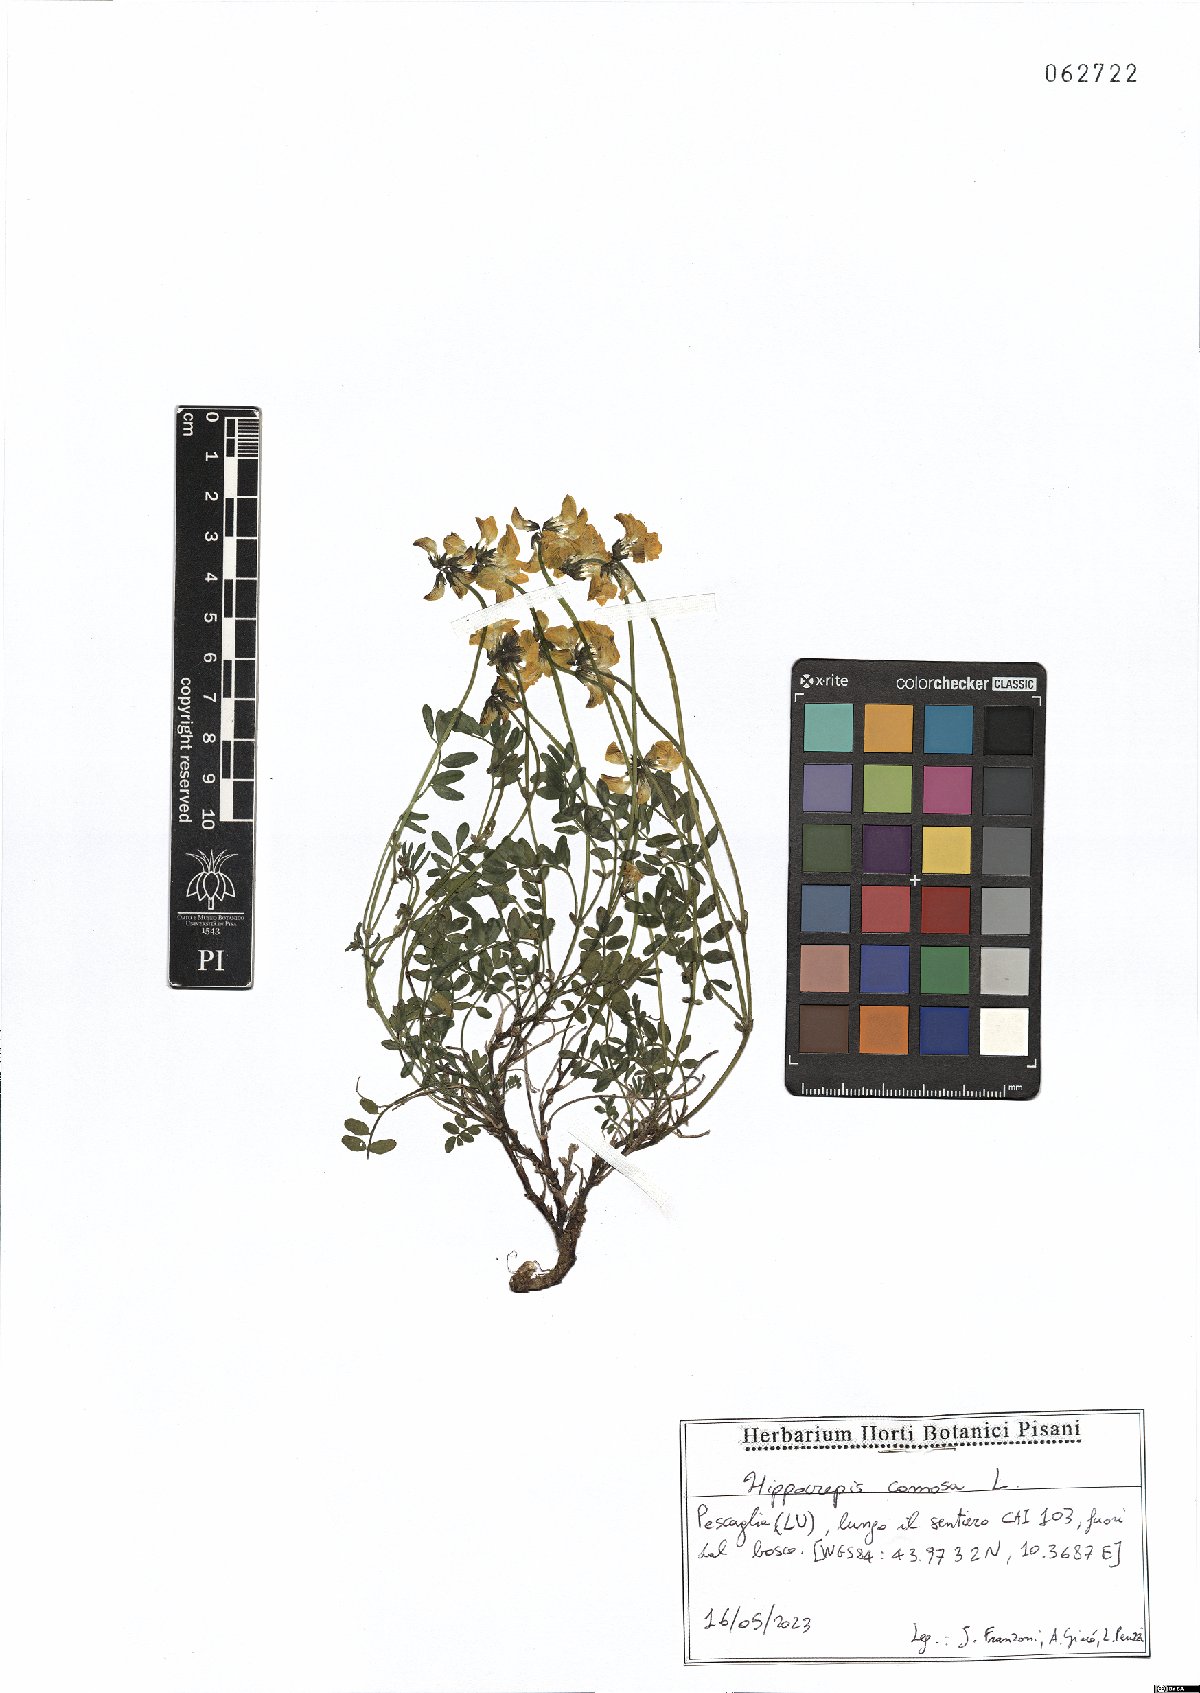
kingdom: Plantae
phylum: Tracheophyta
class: Magnoliopsida
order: Fabales
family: Fabaceae
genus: Hippocrepis
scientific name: Hippocrepis comosa
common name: Horseshoe vetch
